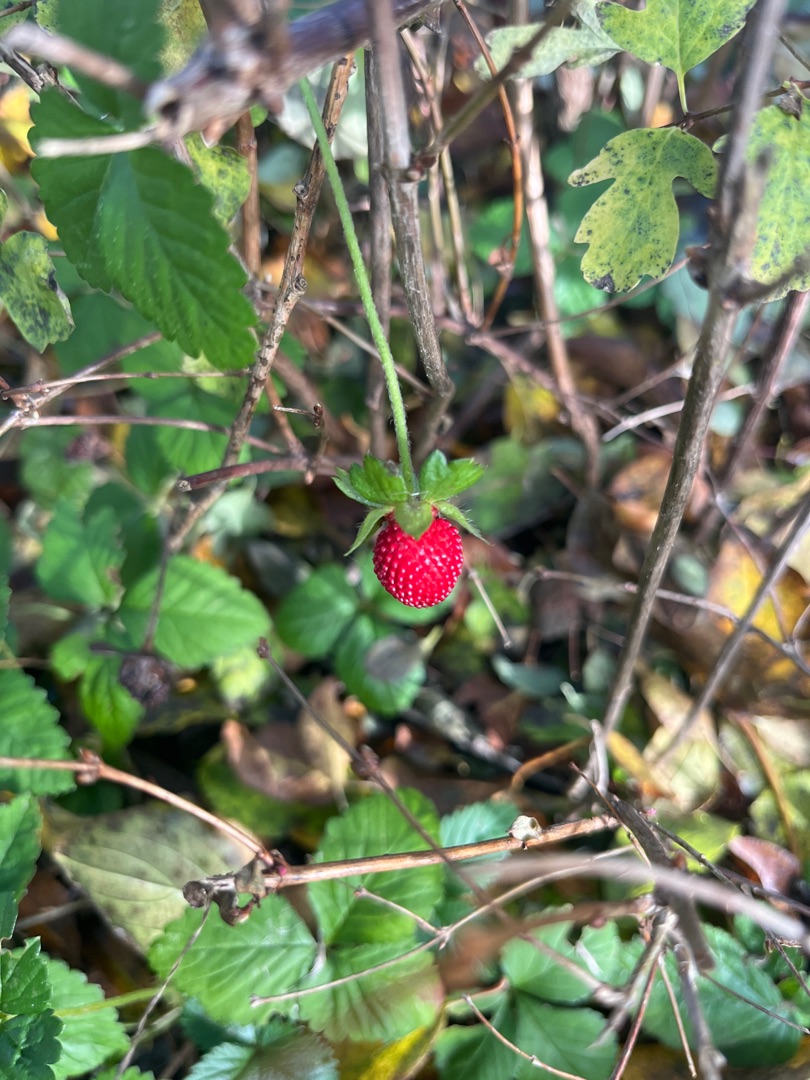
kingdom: Plantae
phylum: Tracheophyta
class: Magnoliopsida
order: Rosales
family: Rosaceae
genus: Potentilla
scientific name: Potentilla indica
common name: Indisk jordbær
